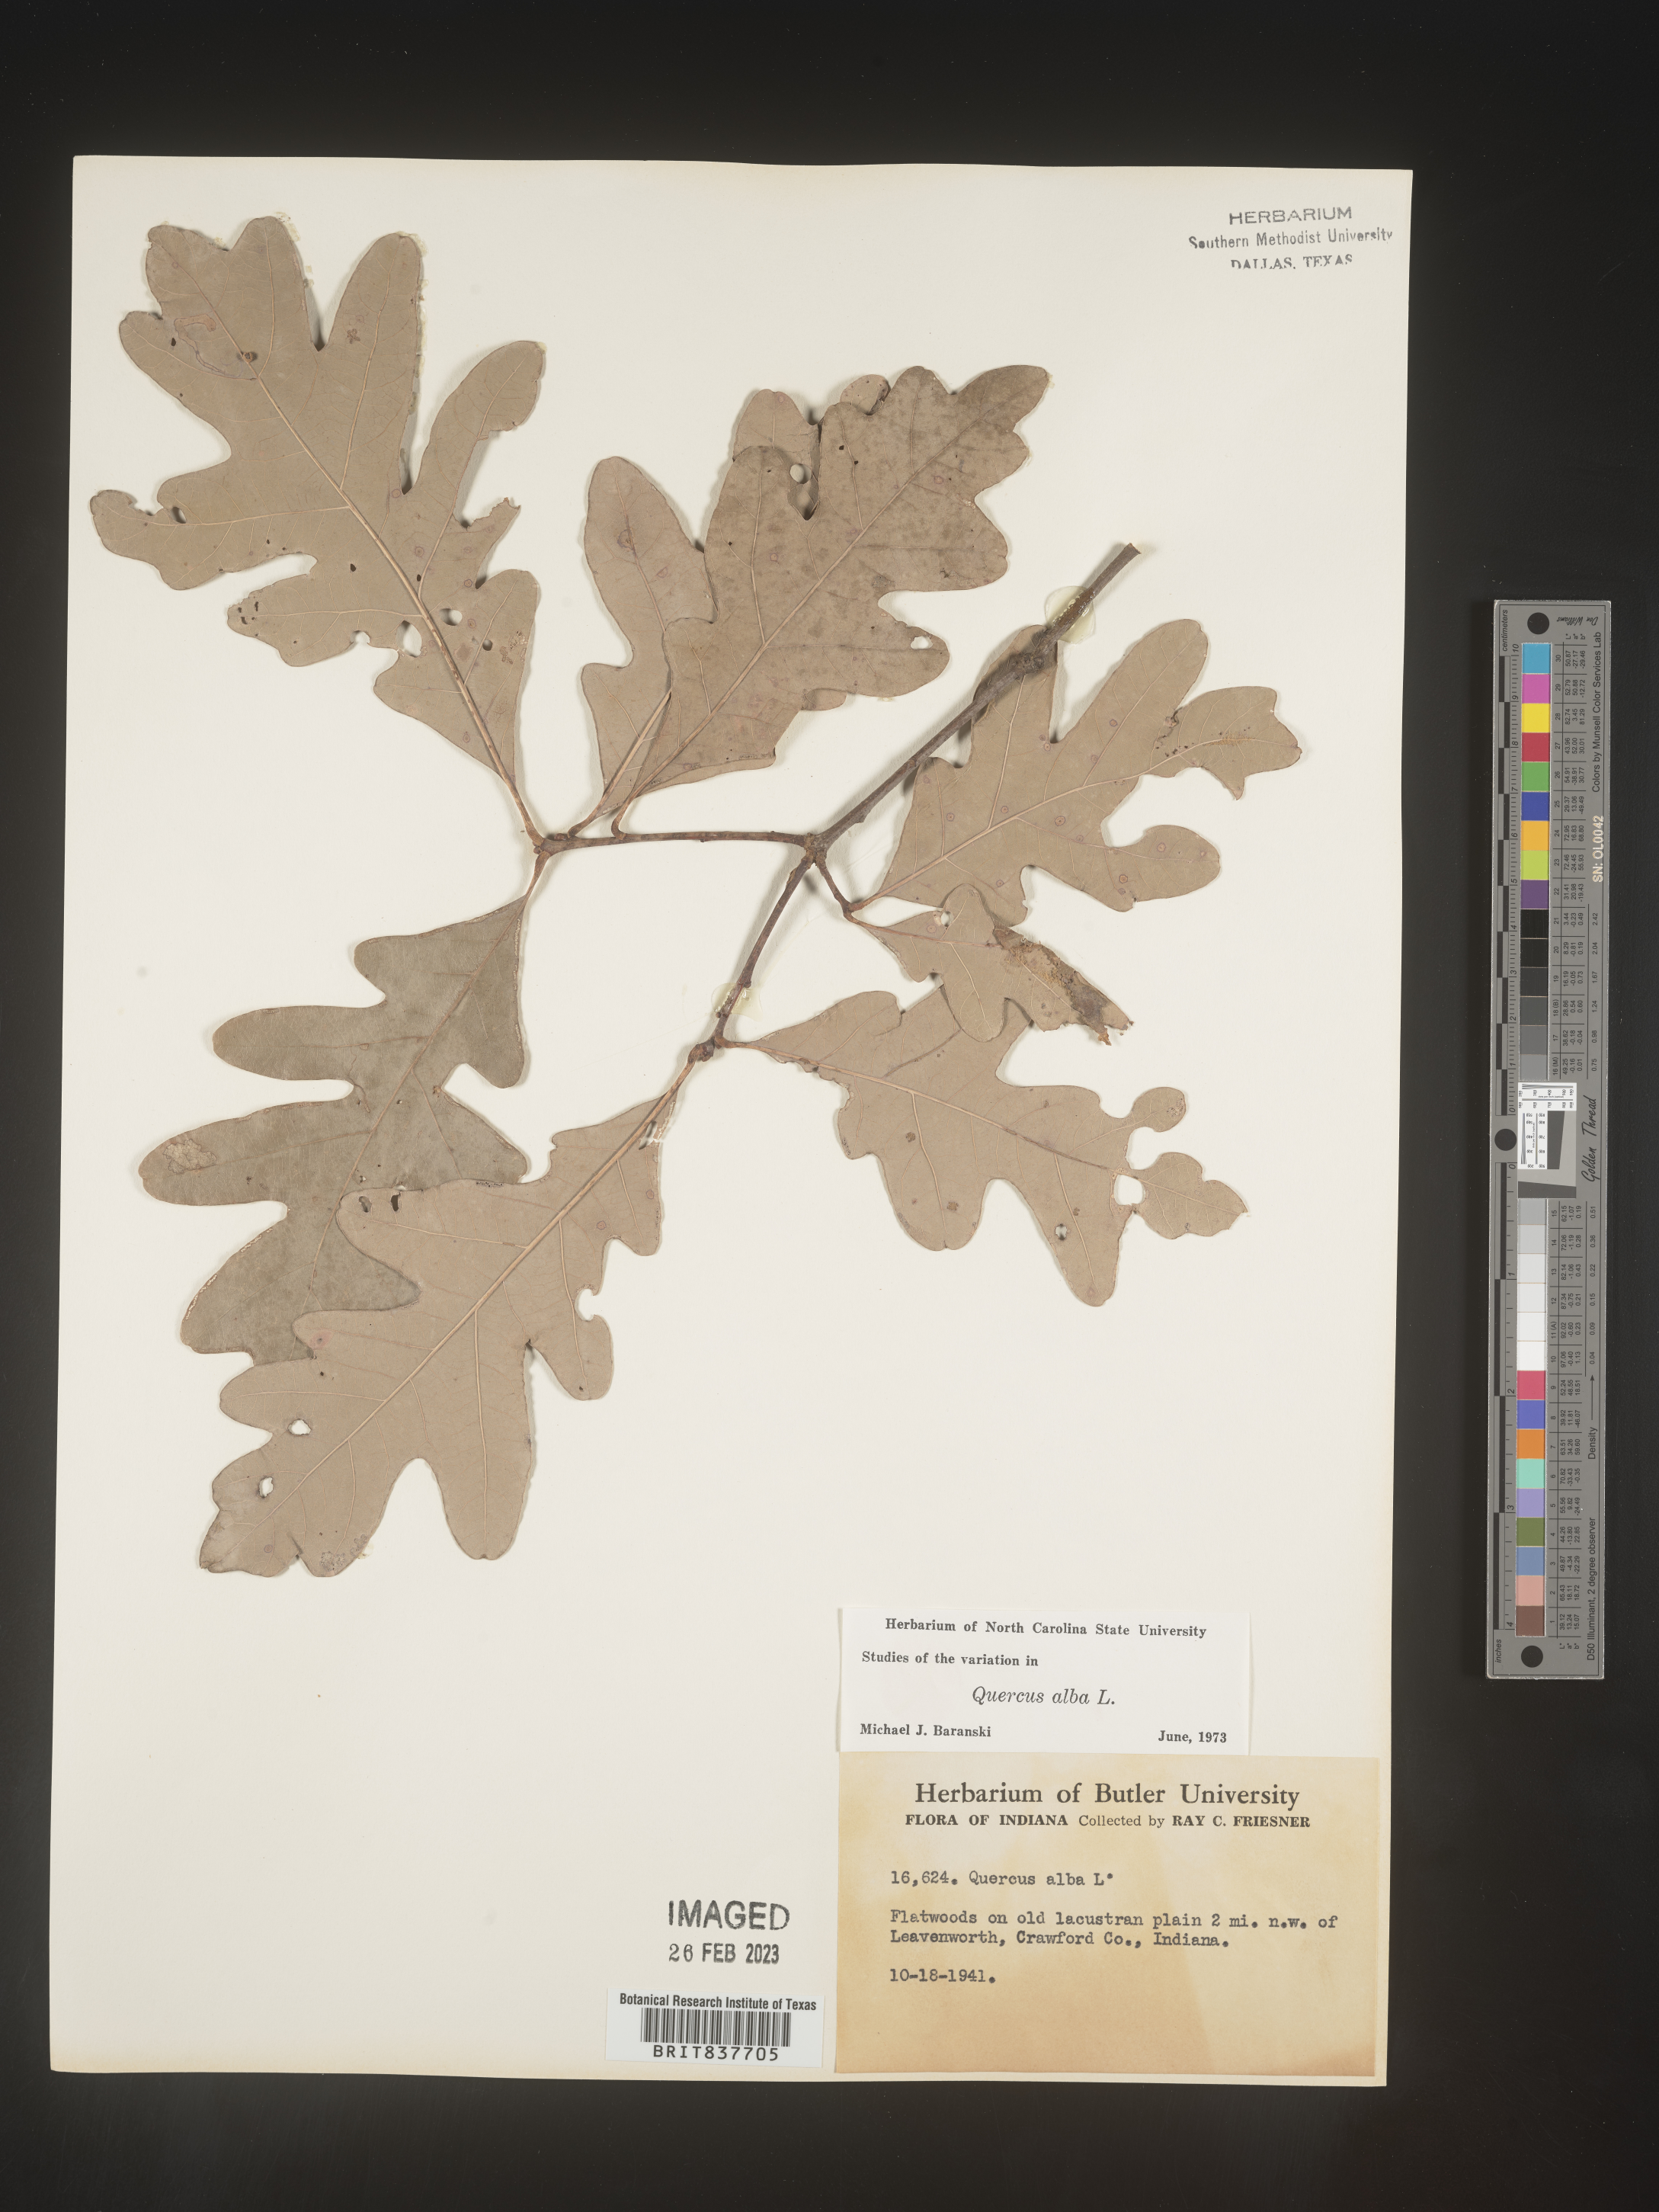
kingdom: Plantae
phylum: Tracheophyta
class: Magnoliopsida
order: Fagales
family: Fagaceae
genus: Quercus
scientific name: Quercus alba
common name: White oak
